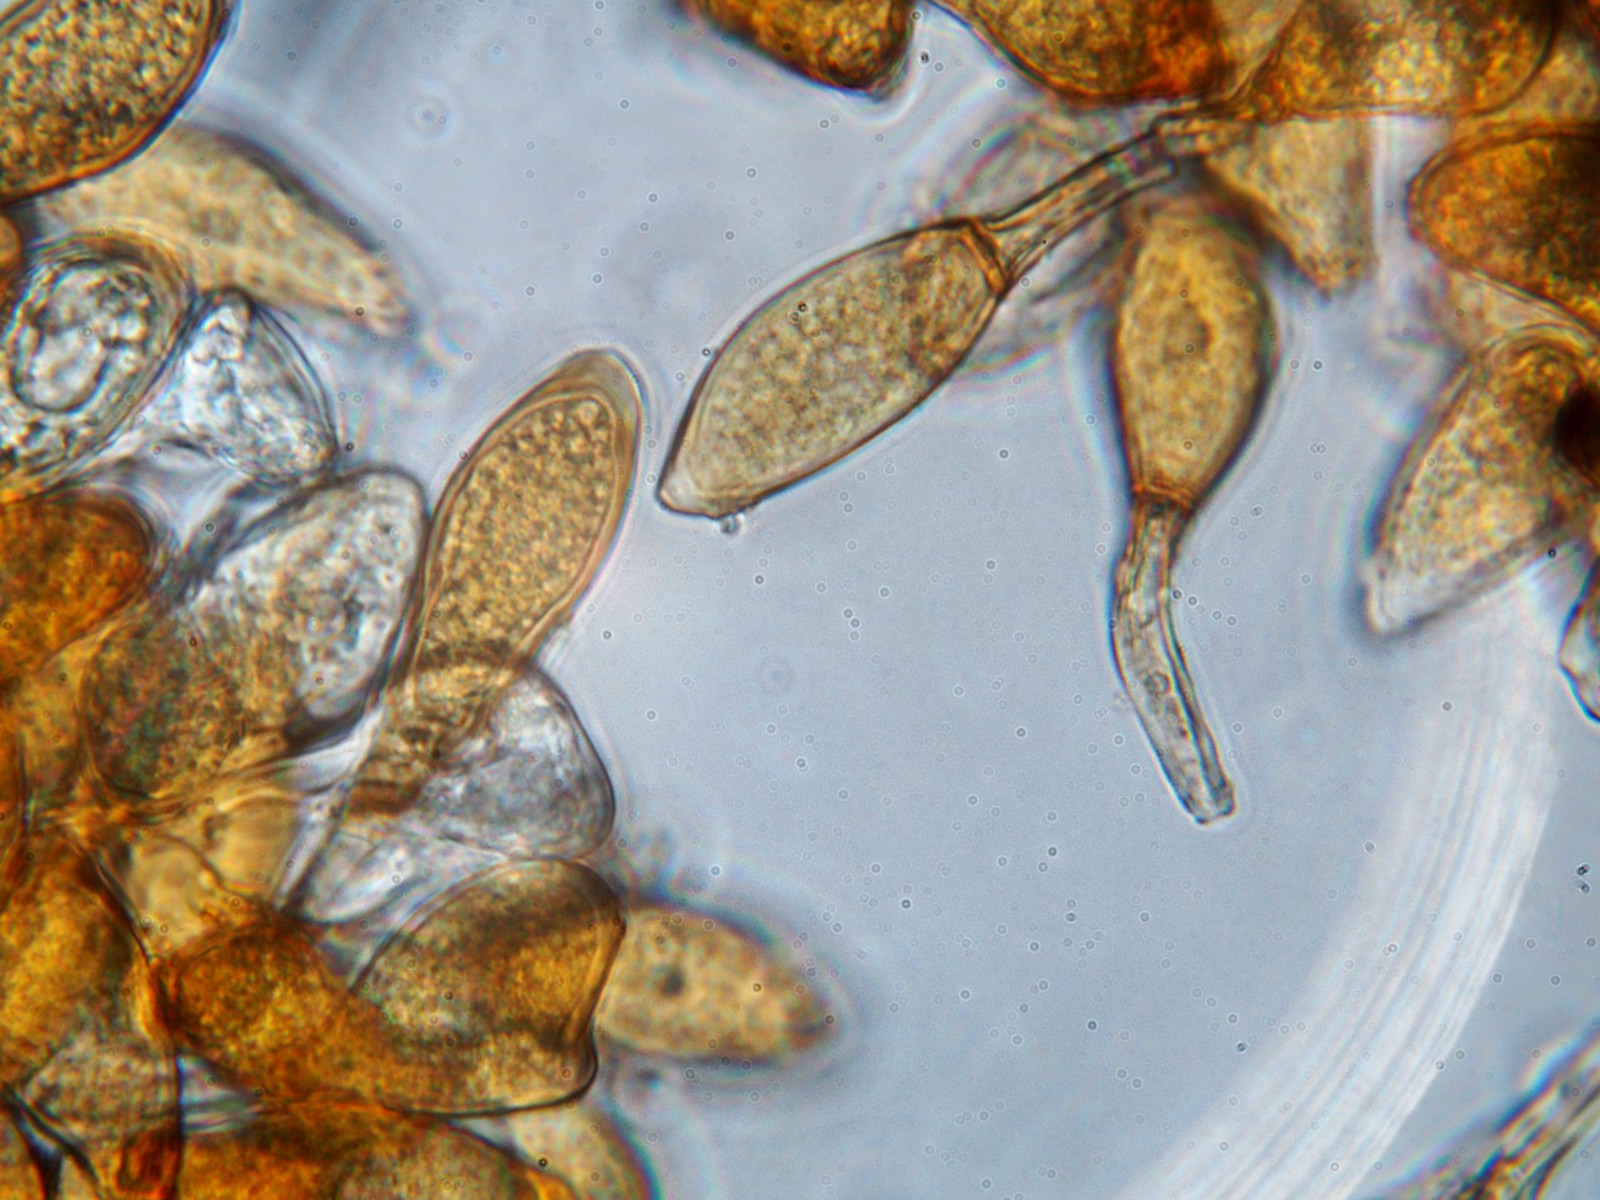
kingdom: Fungi
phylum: Basidiomycota
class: Pucciniomycetes
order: Pucciniales
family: Pucciniaceae
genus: Uromyces
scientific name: Uromyces lineolatus
